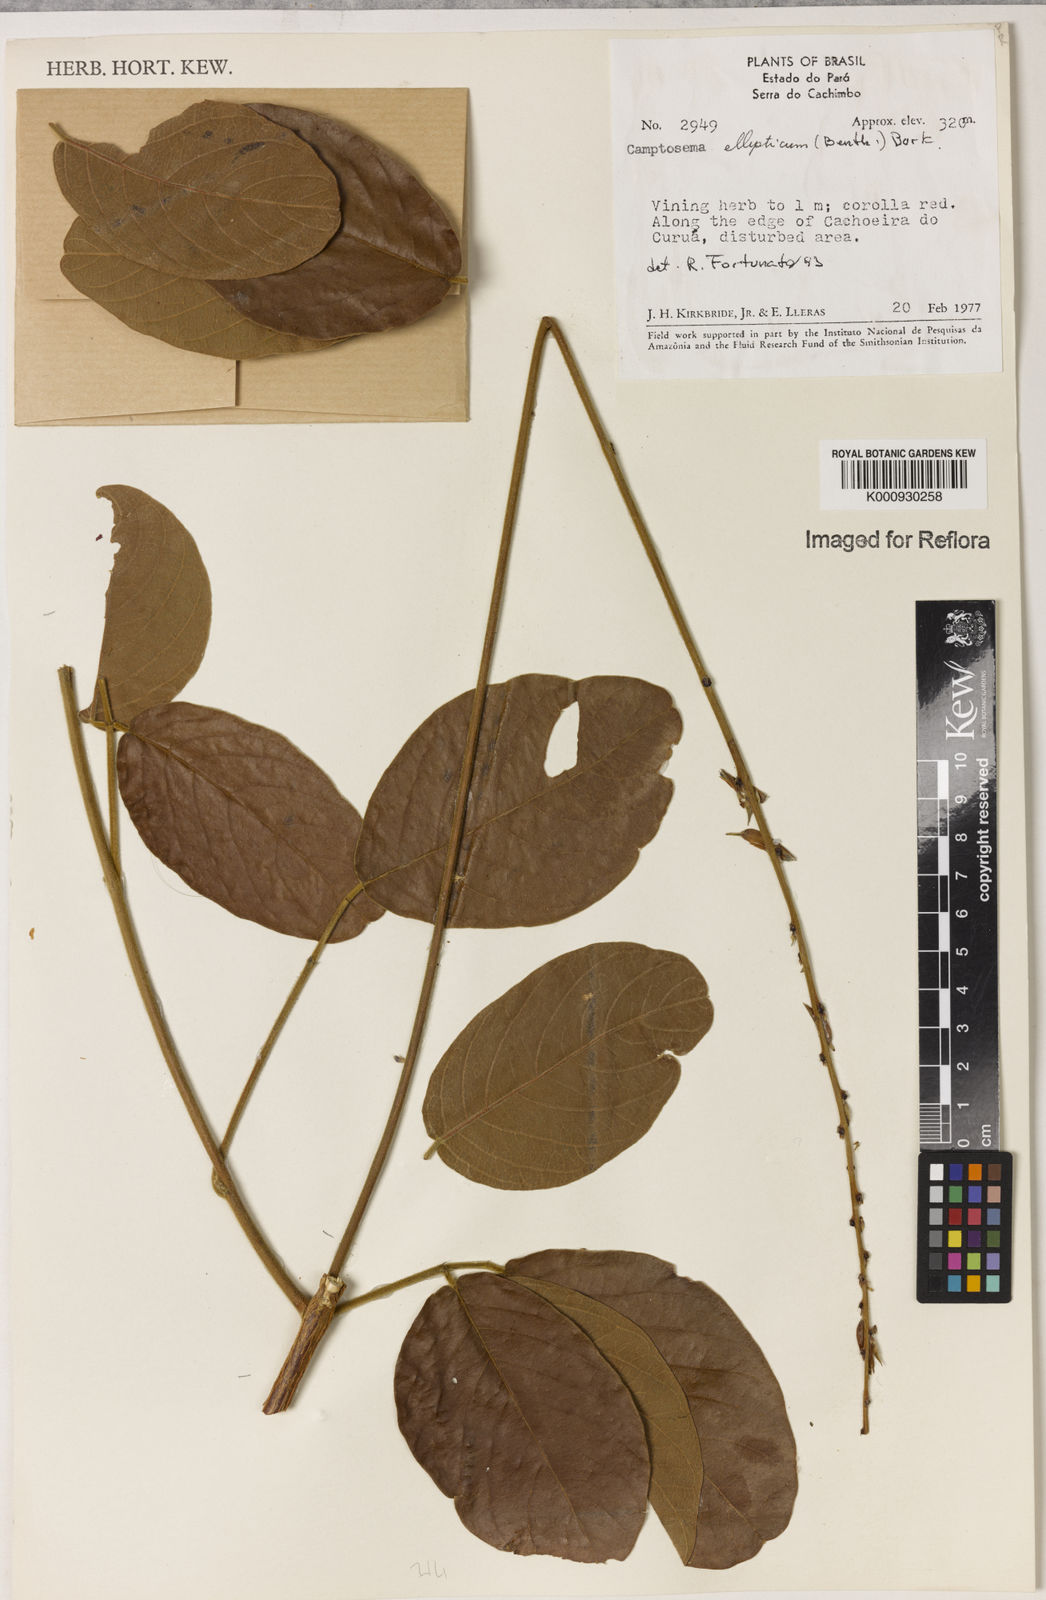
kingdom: Plantae
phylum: Tracheophyta
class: Magnoliopsida
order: Fabales
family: Fabaceae
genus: Camptosema
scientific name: Camptosema
